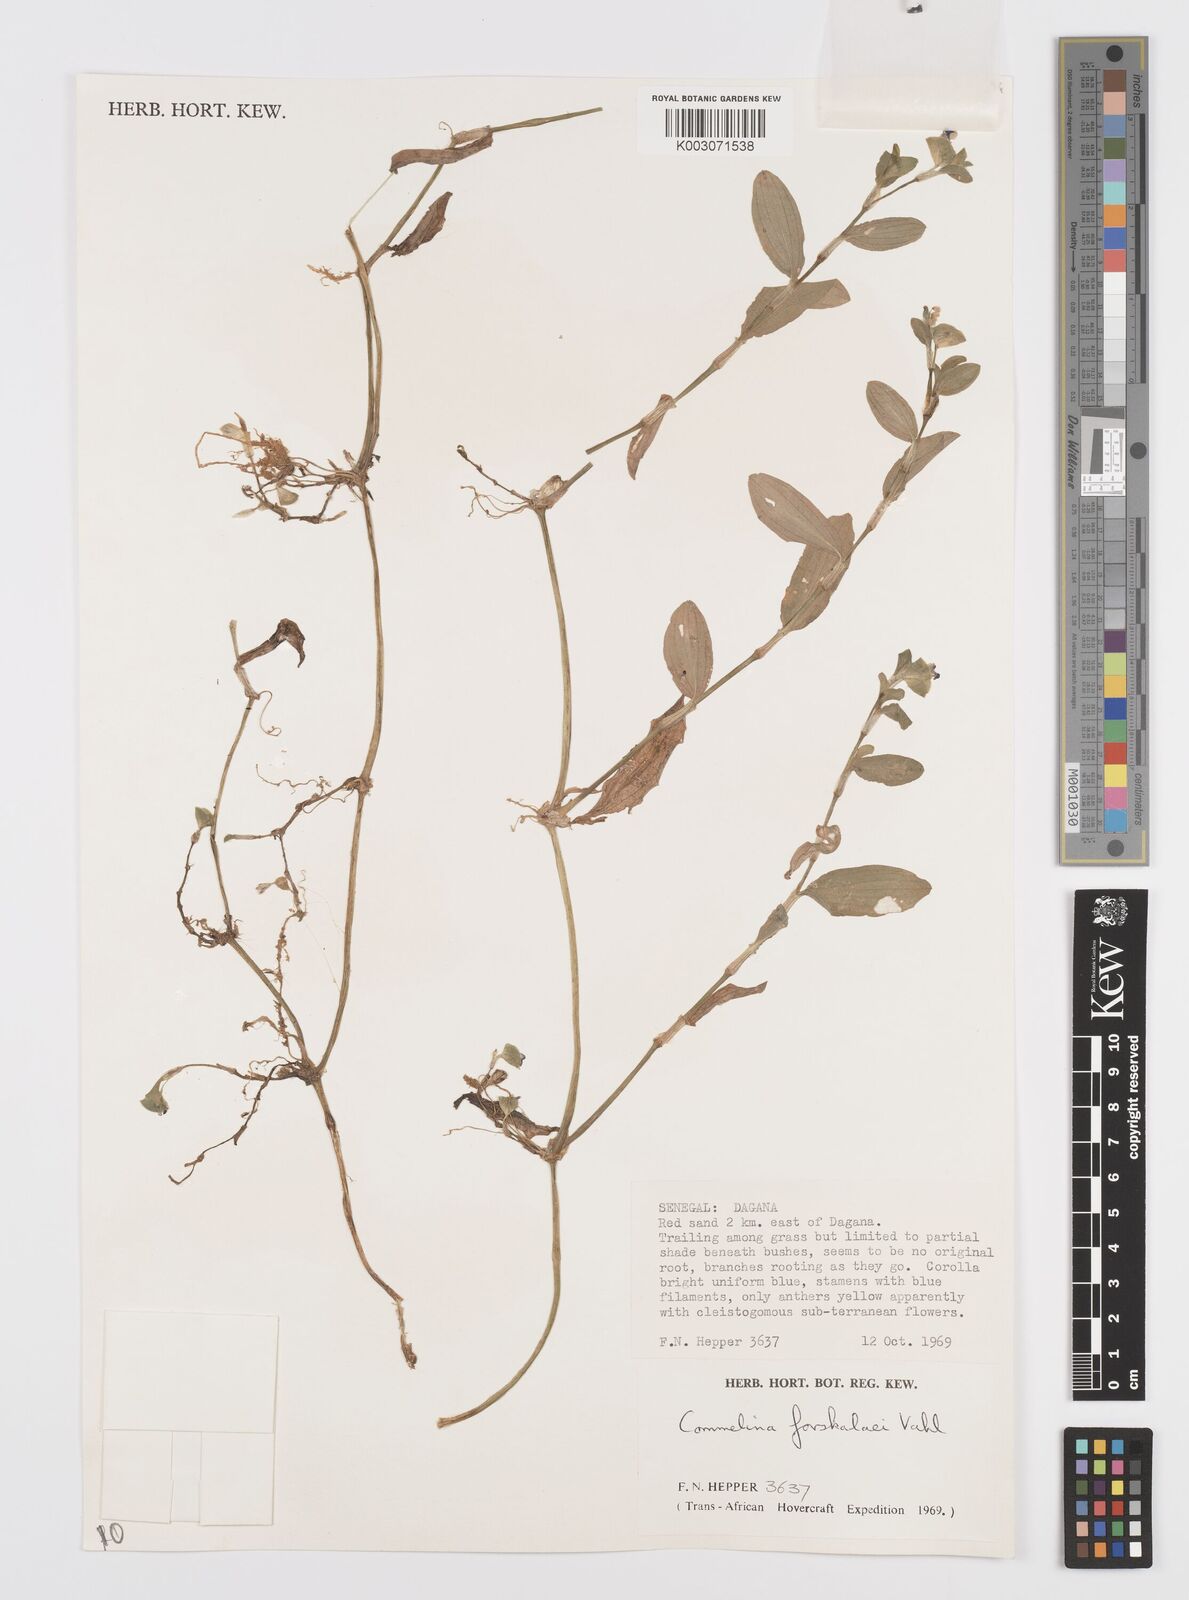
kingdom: Plantae
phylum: Tracheophyta
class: Liliopsida
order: Commelinales
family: Commelinaceae
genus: Commelina
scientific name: Commelina forskaolii
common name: Rat's ear
